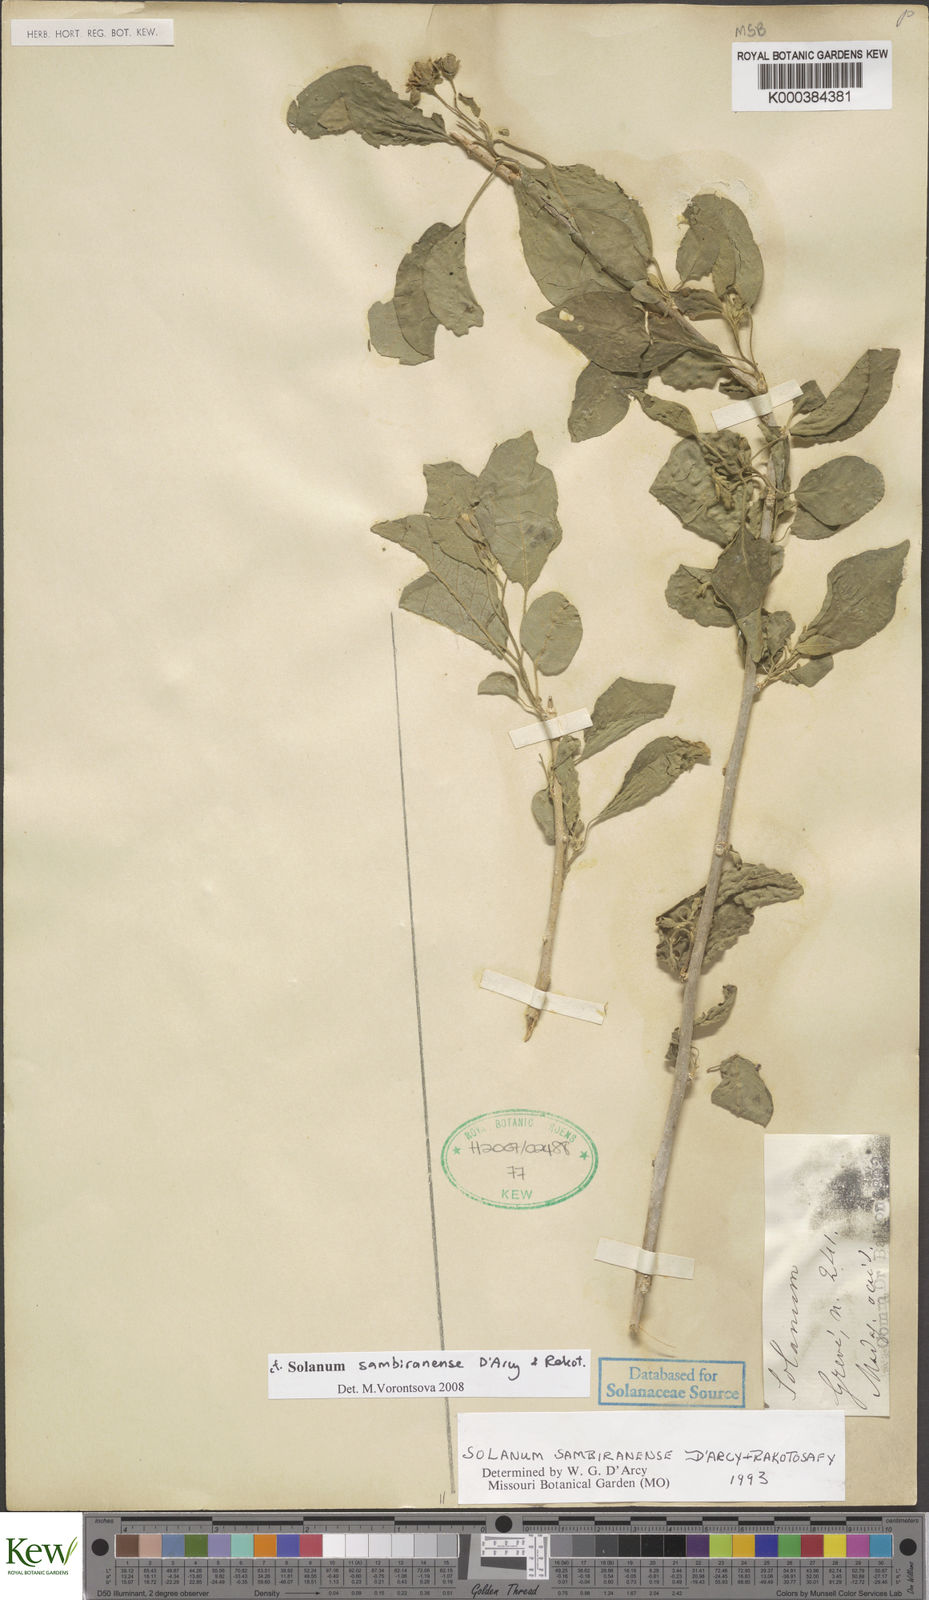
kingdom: Plantae
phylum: Tracheophyta
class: Magnoliopsida
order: Solanales
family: Solanaceae
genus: Solanum
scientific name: Solanum sambiranense
